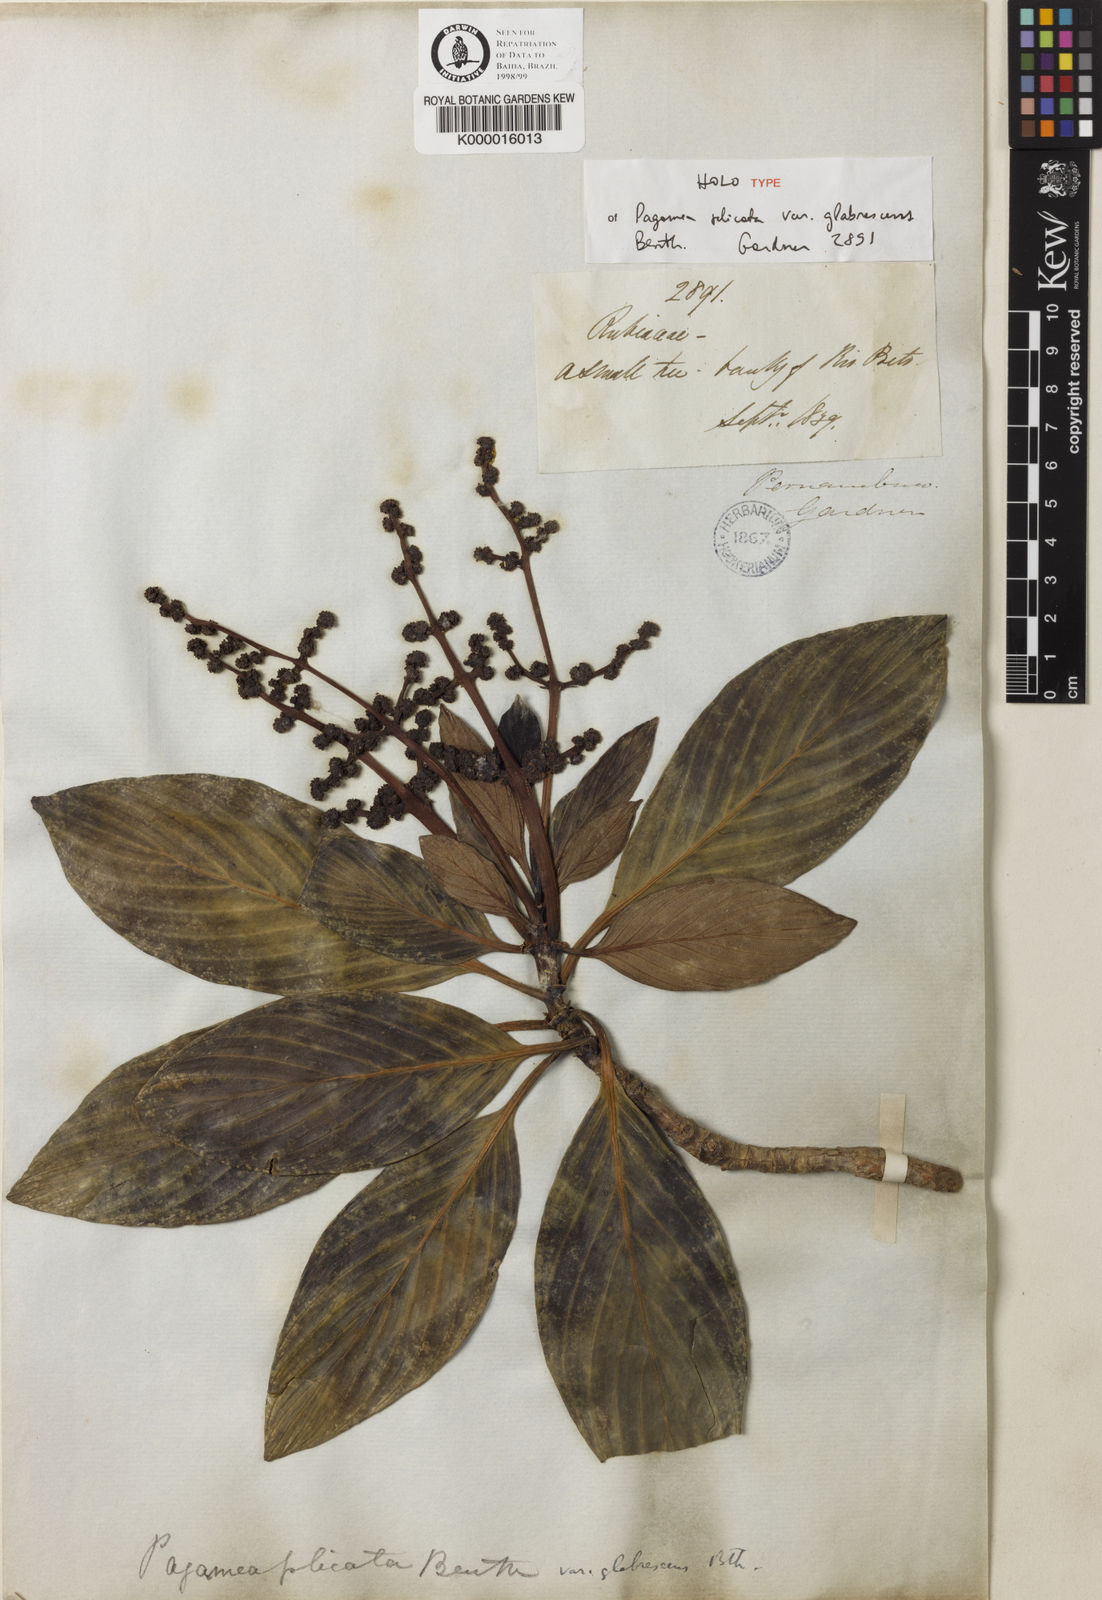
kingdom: Plantae
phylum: Tracheophyta
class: Magnoliopsida
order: Gentianales
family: Rubiaceae
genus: Pagamea
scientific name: Pagamea plicata
